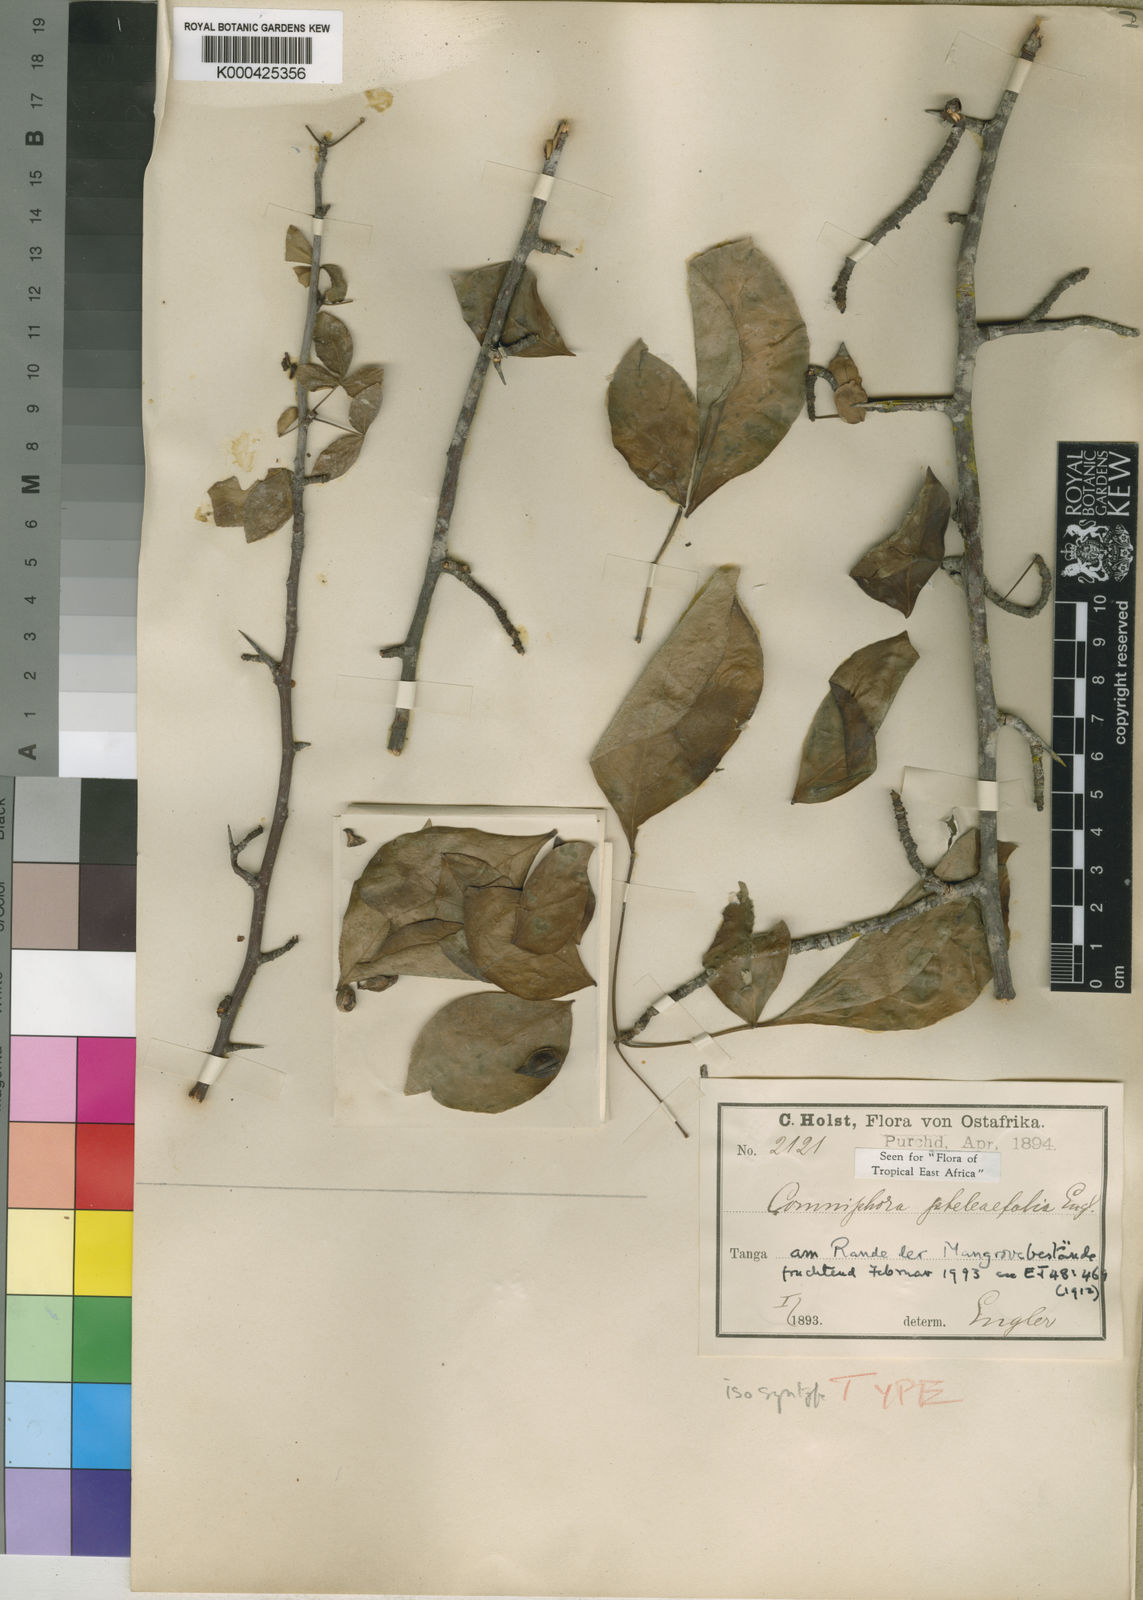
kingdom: Plantae
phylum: Tracheophyta
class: Magnoliopsida
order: Sapindales
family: Burseraceae
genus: Commiphora
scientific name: Commiphora pteleifolia
